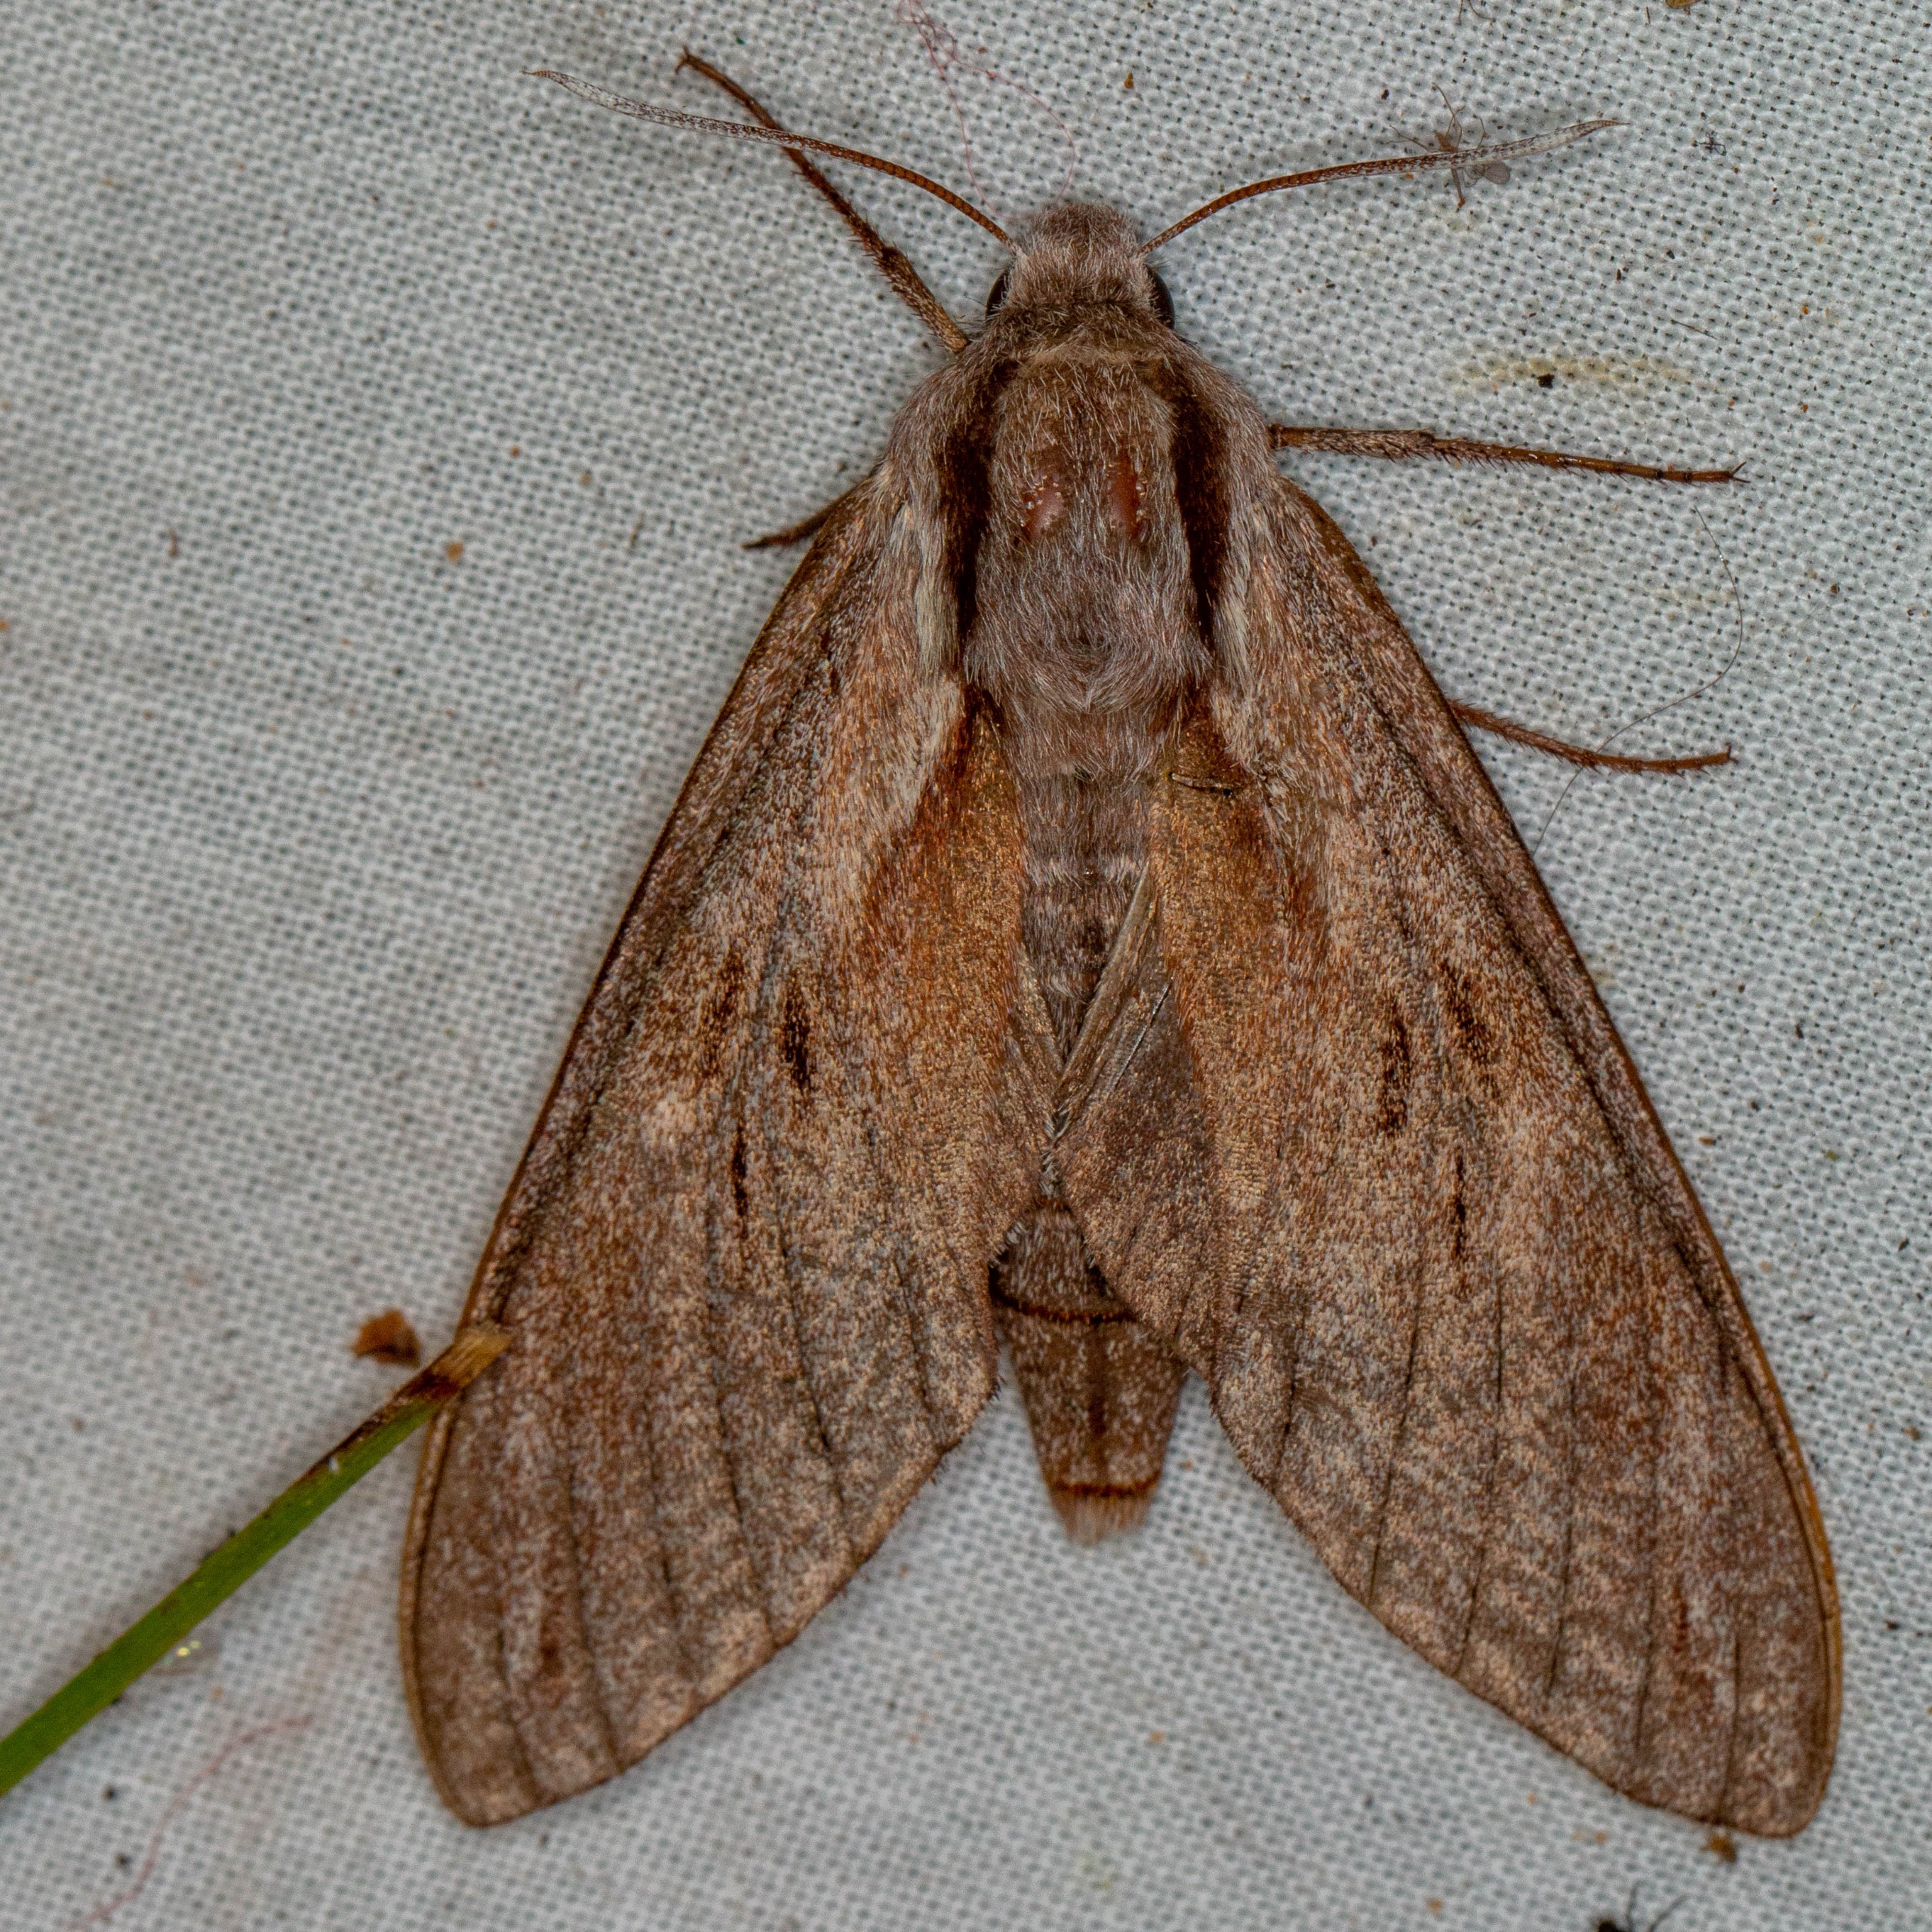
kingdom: Animalia
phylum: Arthropoda
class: Insecta
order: Lepidoptera
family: Sphingidae
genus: Sphinx
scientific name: Sphinx pinastri
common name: Fyrresværmer
